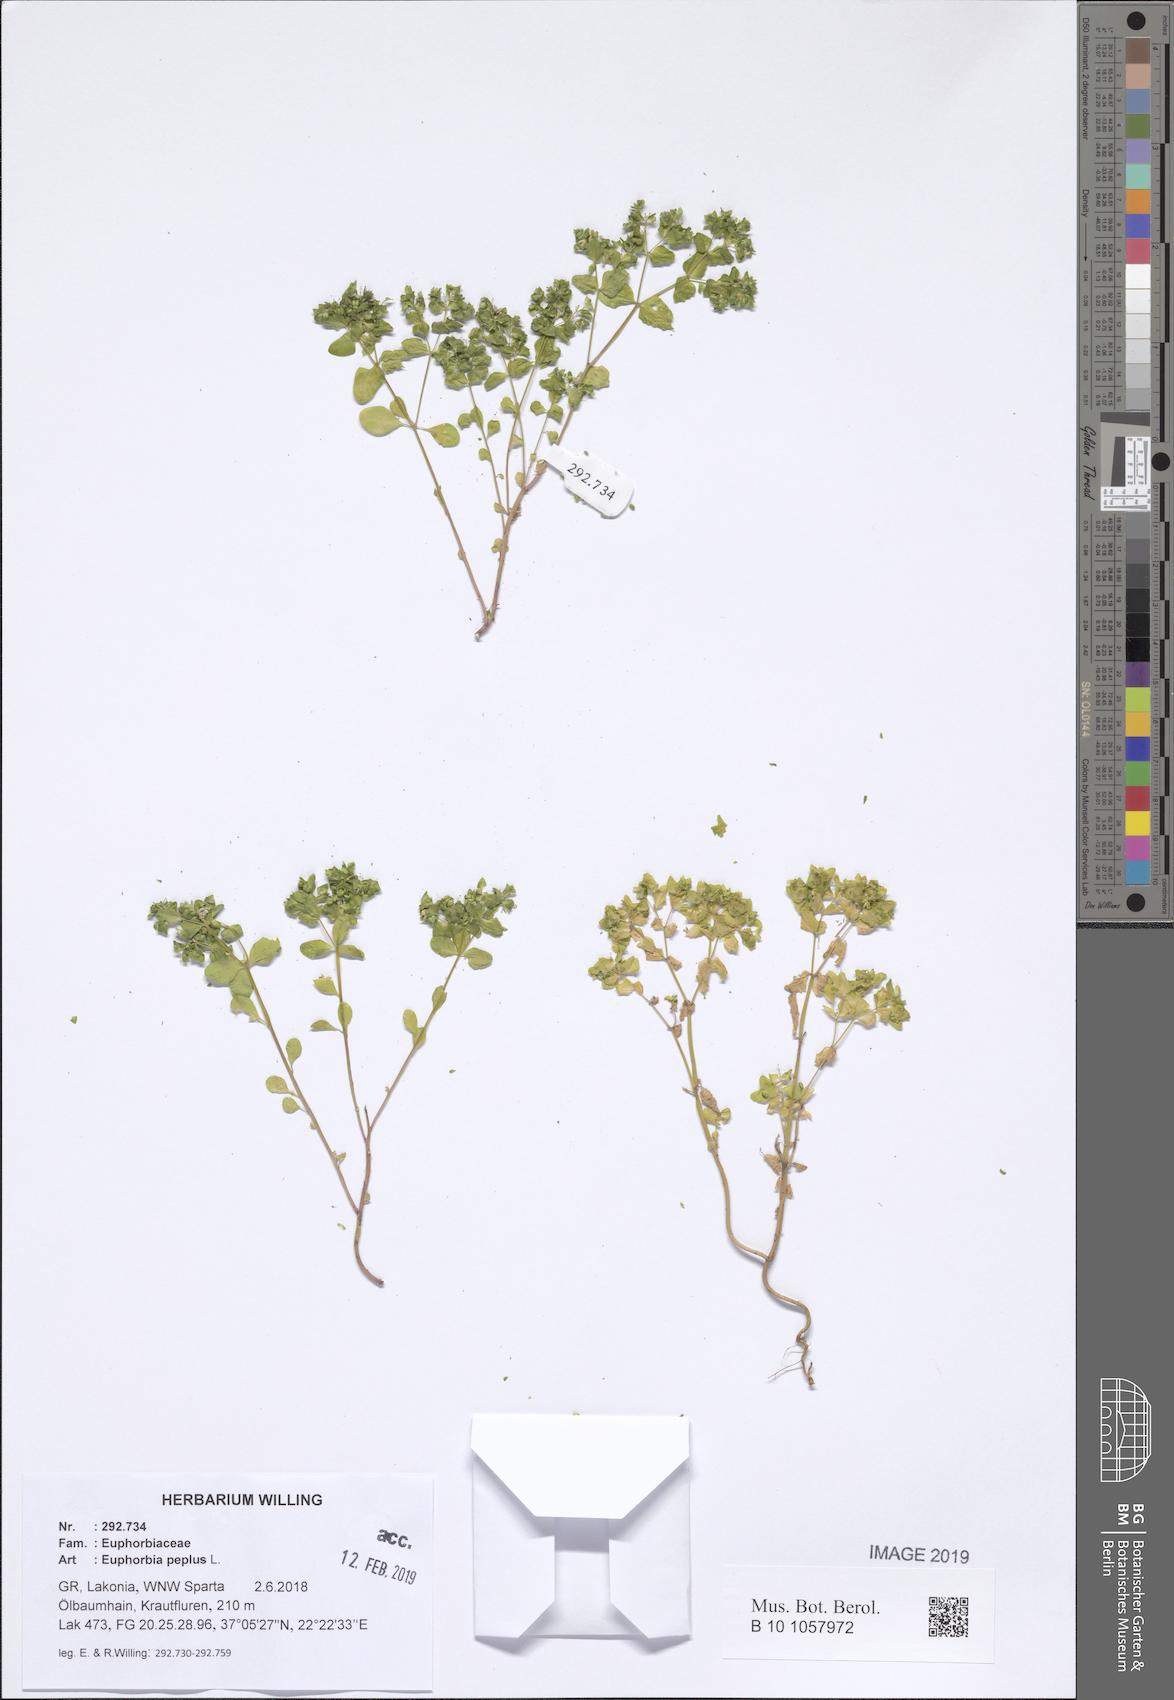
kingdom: Plantae
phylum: Tracheophyta
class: Magnoliopsida
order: Malpighiales
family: Euphorbiaceae
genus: Euphorbia
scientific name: Euphorbia peplus
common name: Petty spurge
